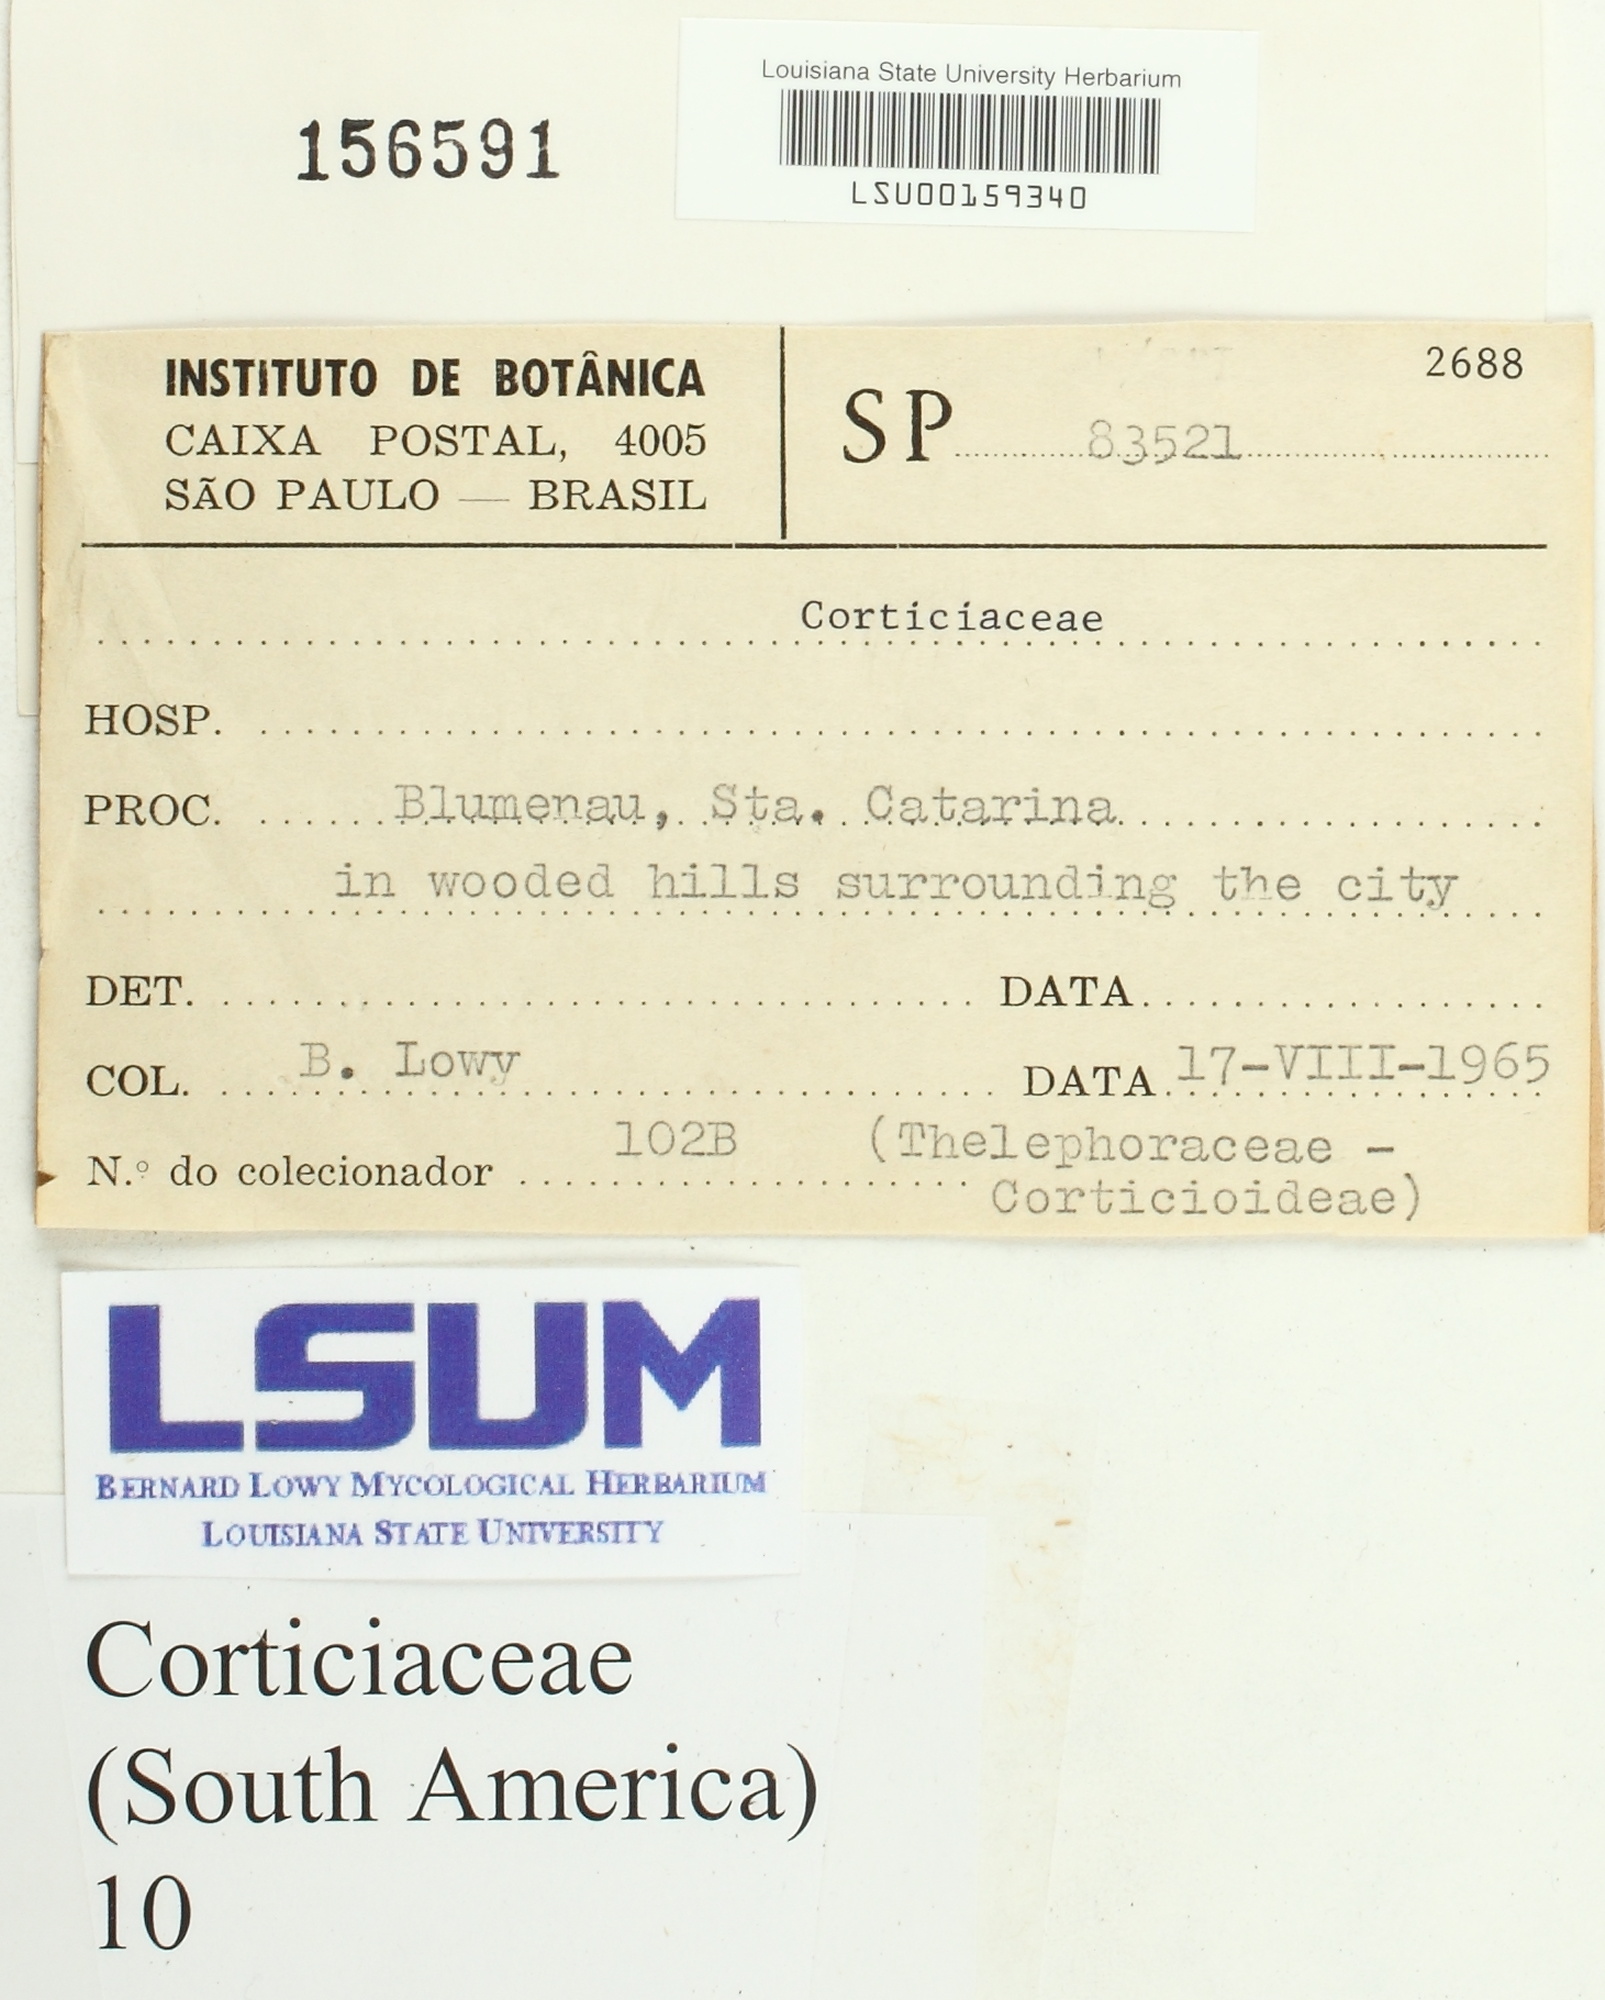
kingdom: Fungi
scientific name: Fungi
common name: Fungi
